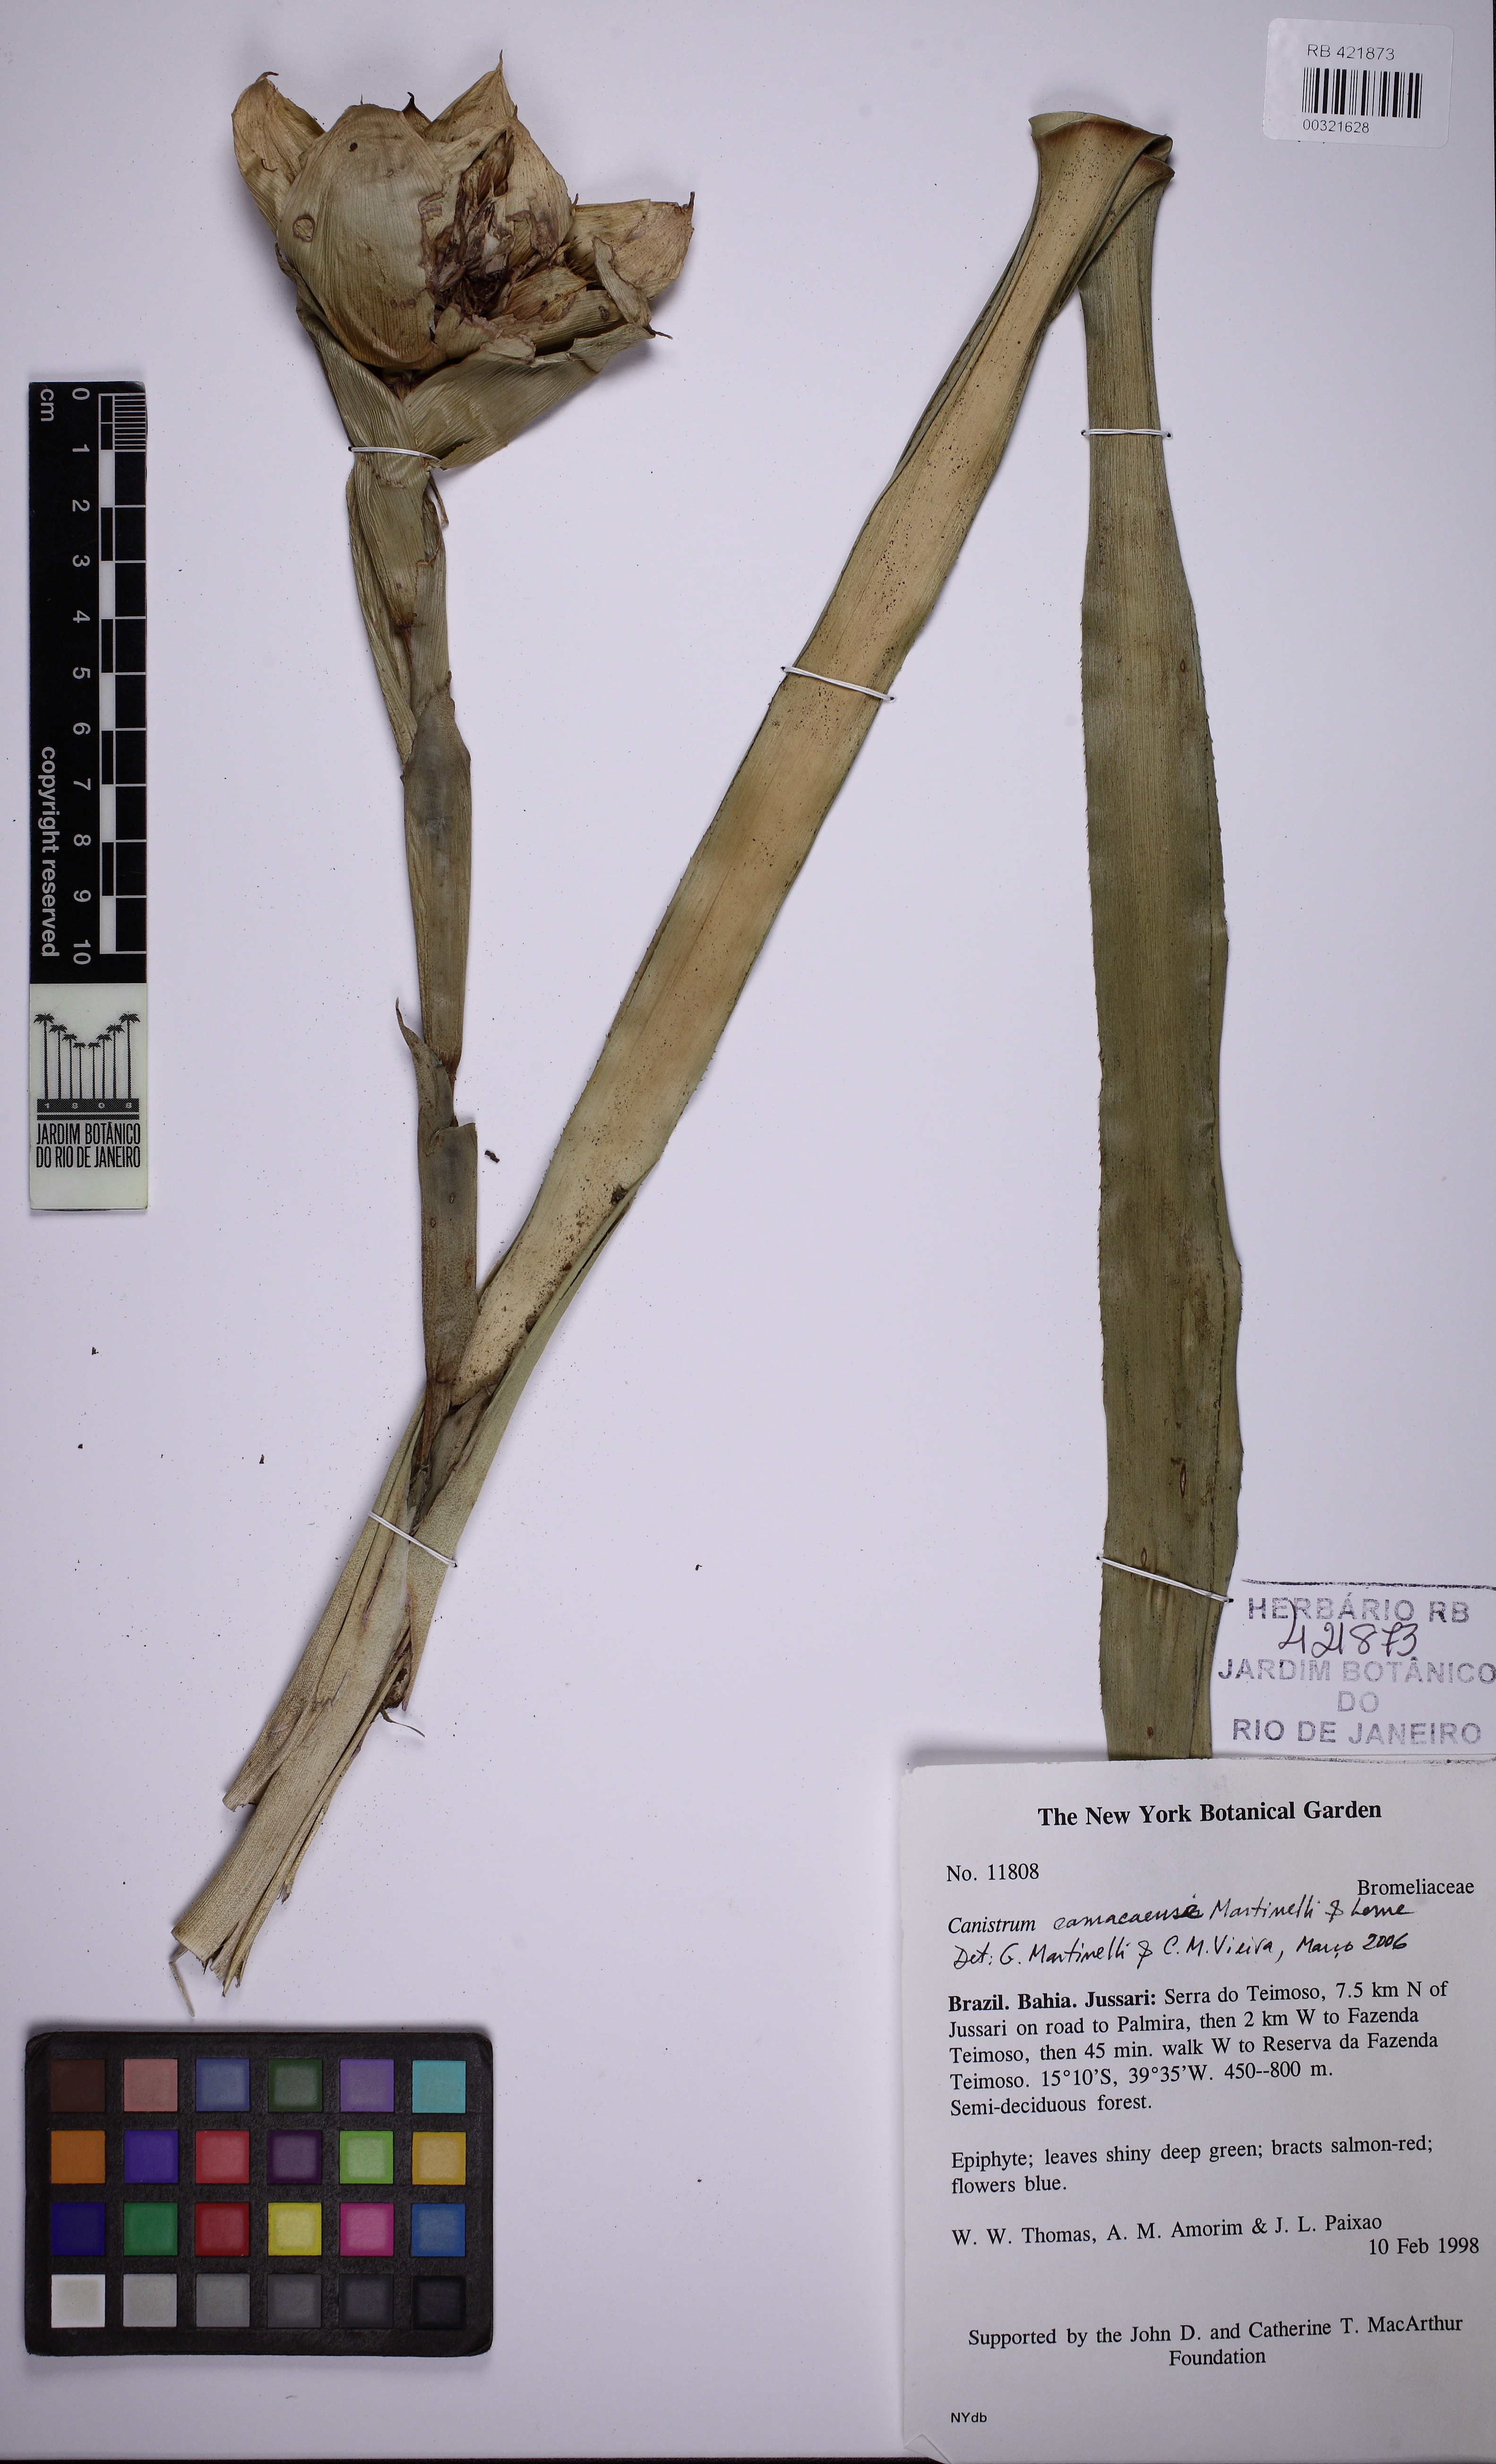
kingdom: Plantae
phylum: Tracheophyta
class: Liliopsida
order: Poales
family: Bromeliaceae
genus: Canistrum
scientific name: Canistrum camacaense
